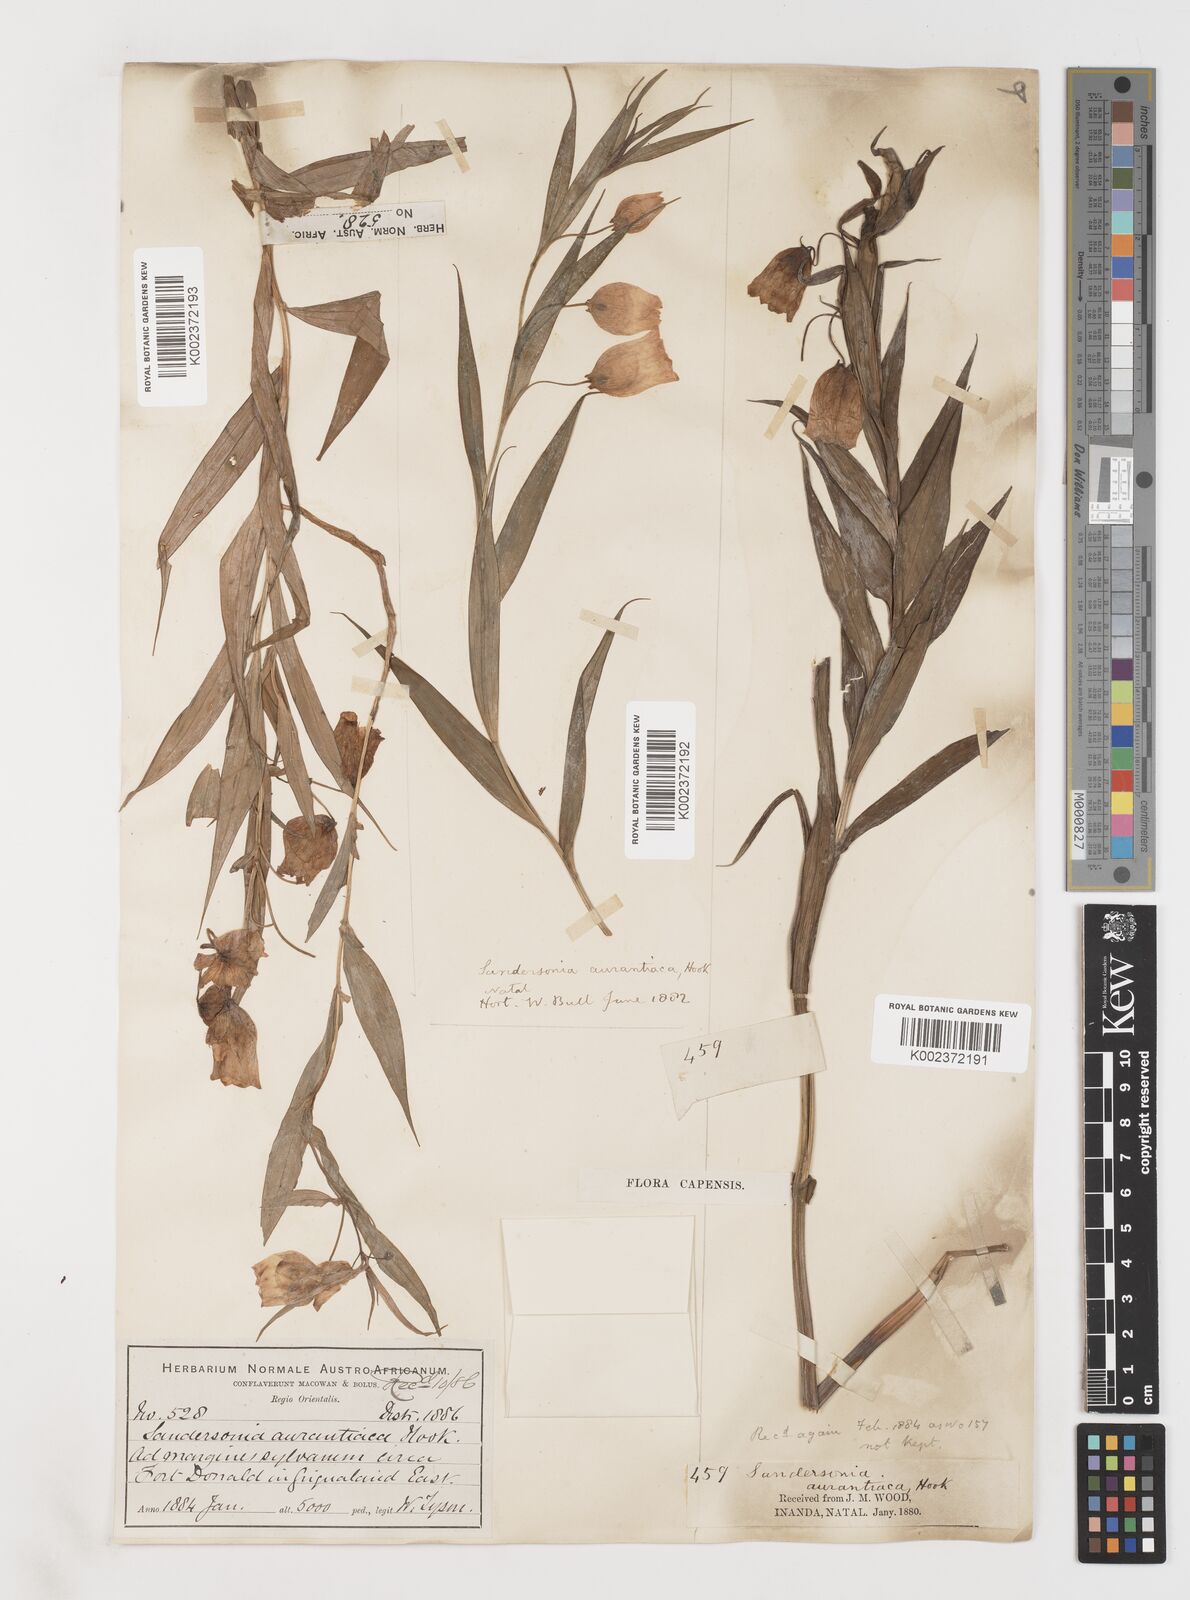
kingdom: Plantae
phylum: Tracheophyta
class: Liliopsida
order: Liliales
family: Colchicaceae
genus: Sandersonia
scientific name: Sandersonia aurantiaca
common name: Chinese-lantern-lily
